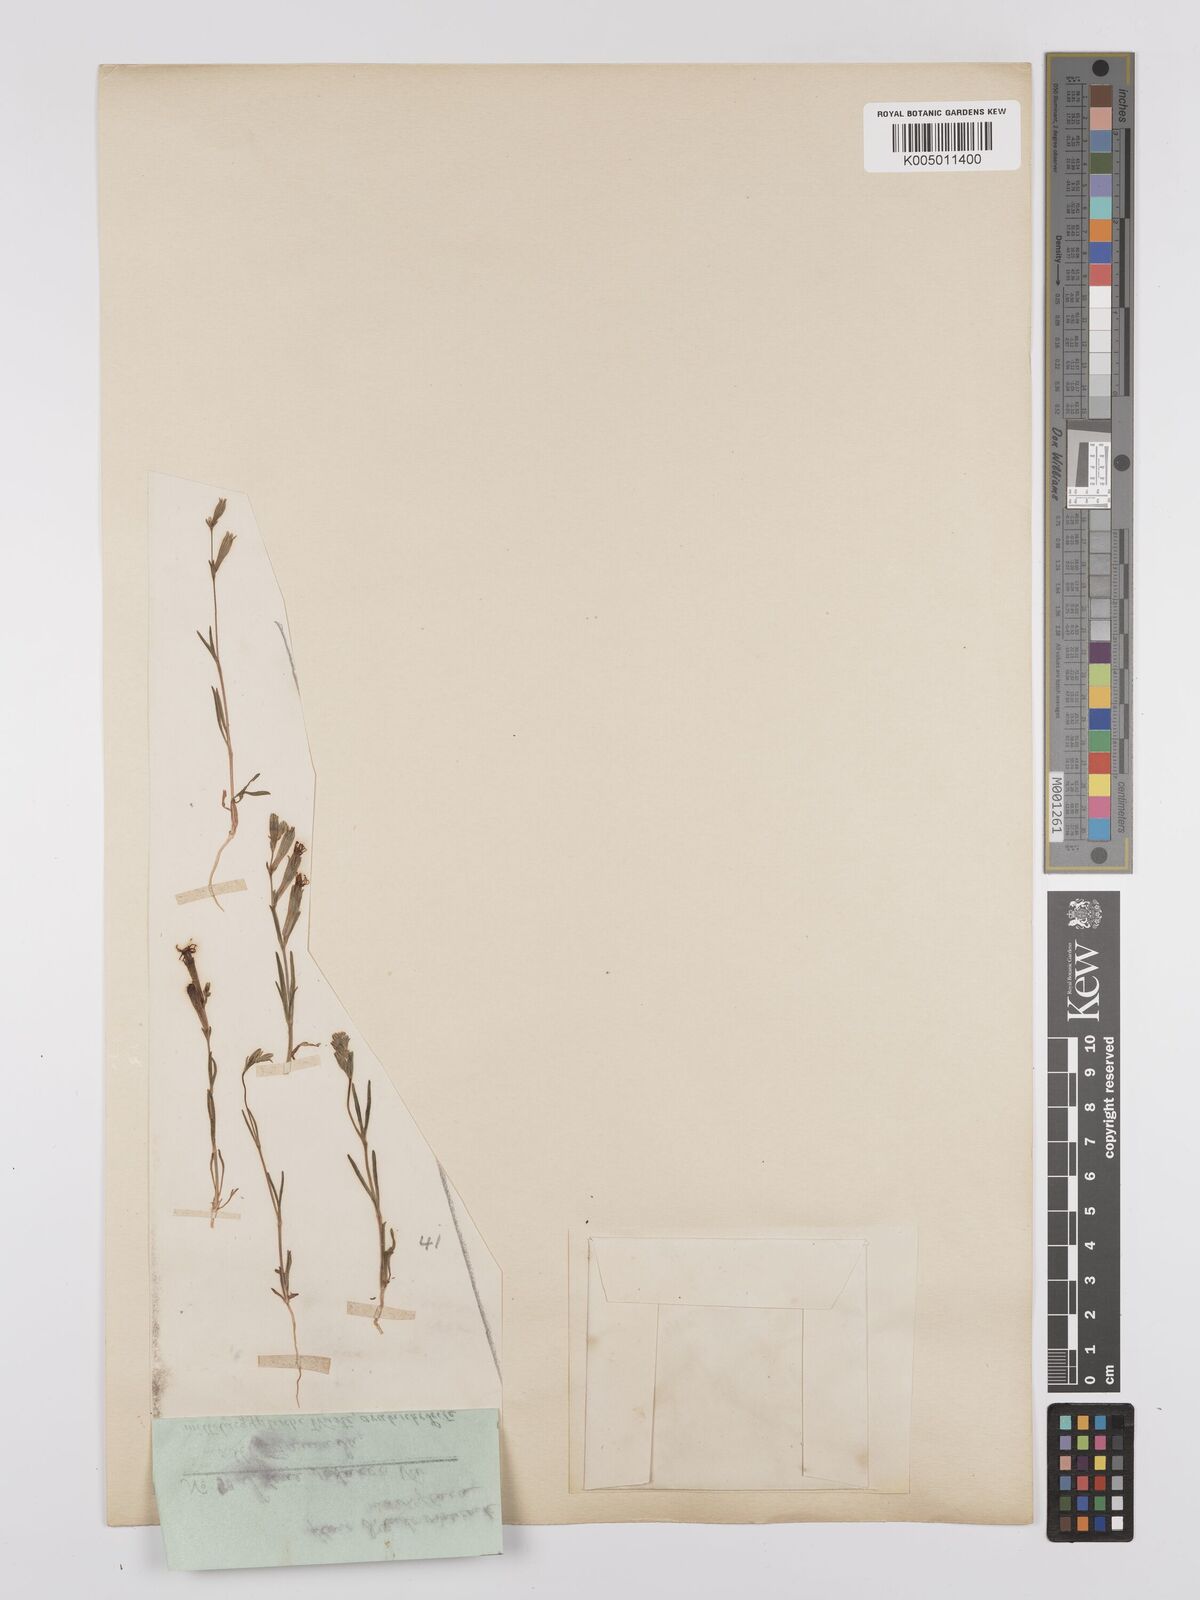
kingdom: Plantae
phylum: Tracheophyta
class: Magnoliopsida
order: Caryophyllales
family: Caryophyllaceae
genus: Silene
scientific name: Silene vivianii
